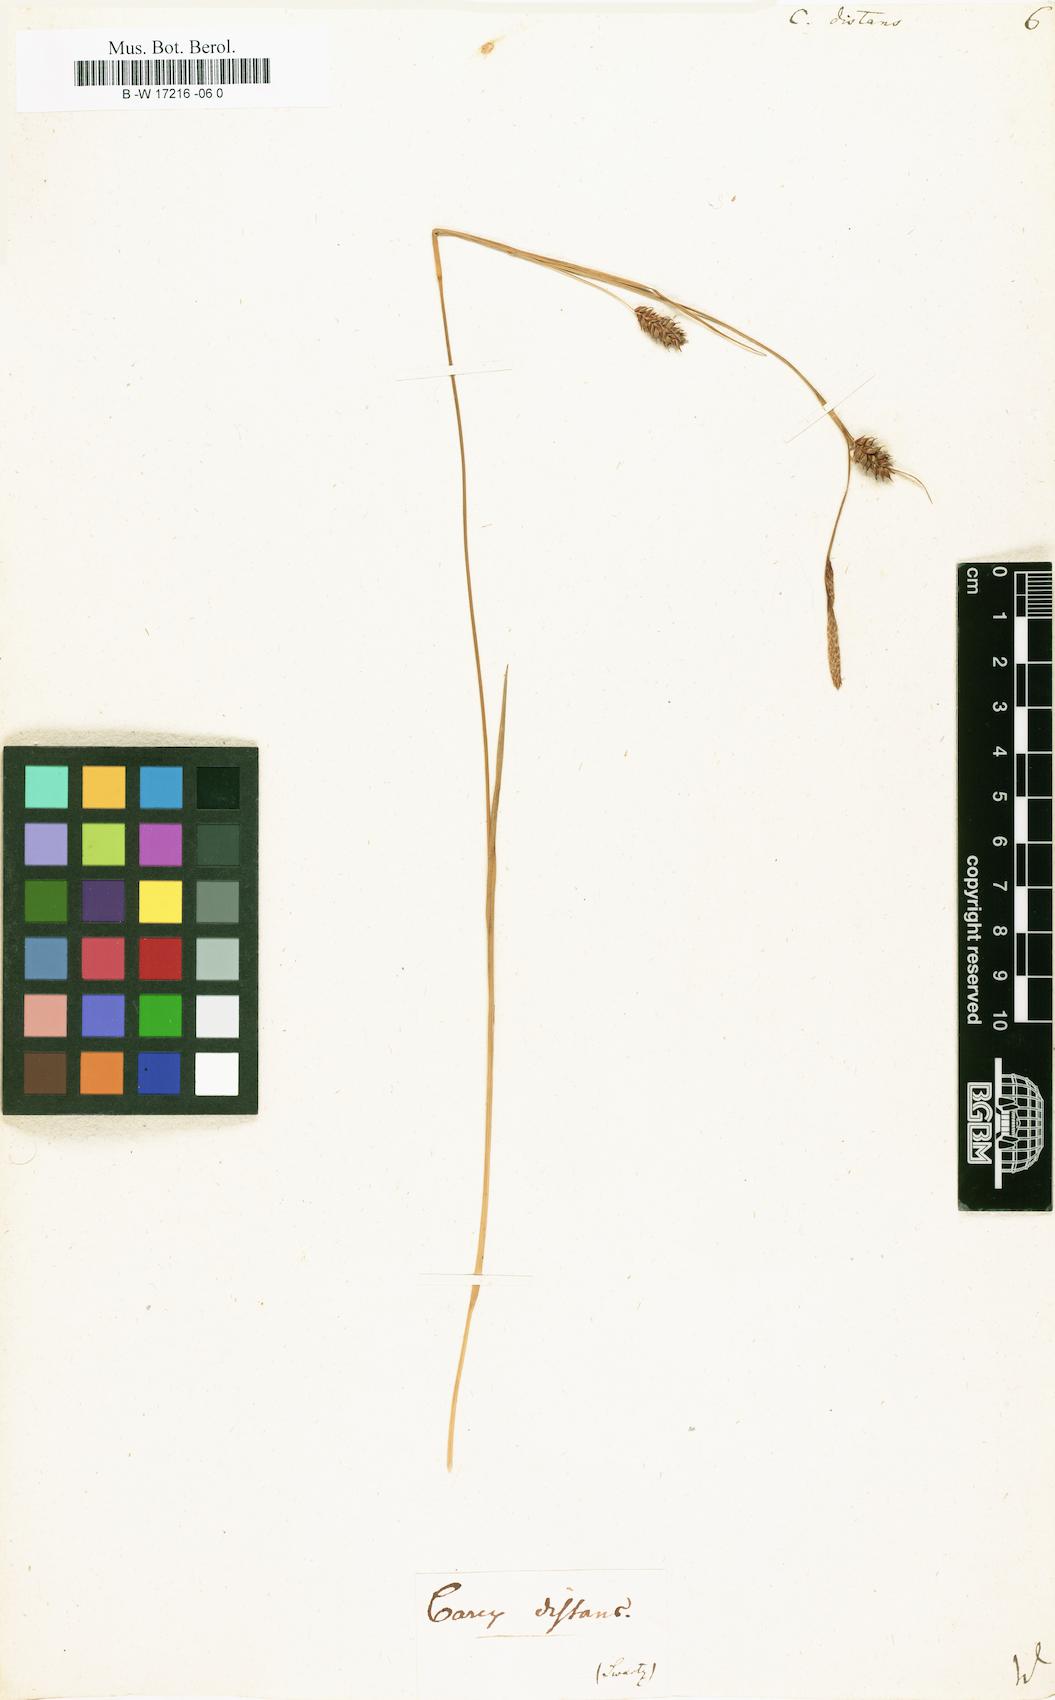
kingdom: Plantae
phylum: Tracheophyta
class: Liliopsida
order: Poales
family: Cyperaceae
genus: Carex
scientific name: Carex distans
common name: Distant sedge
